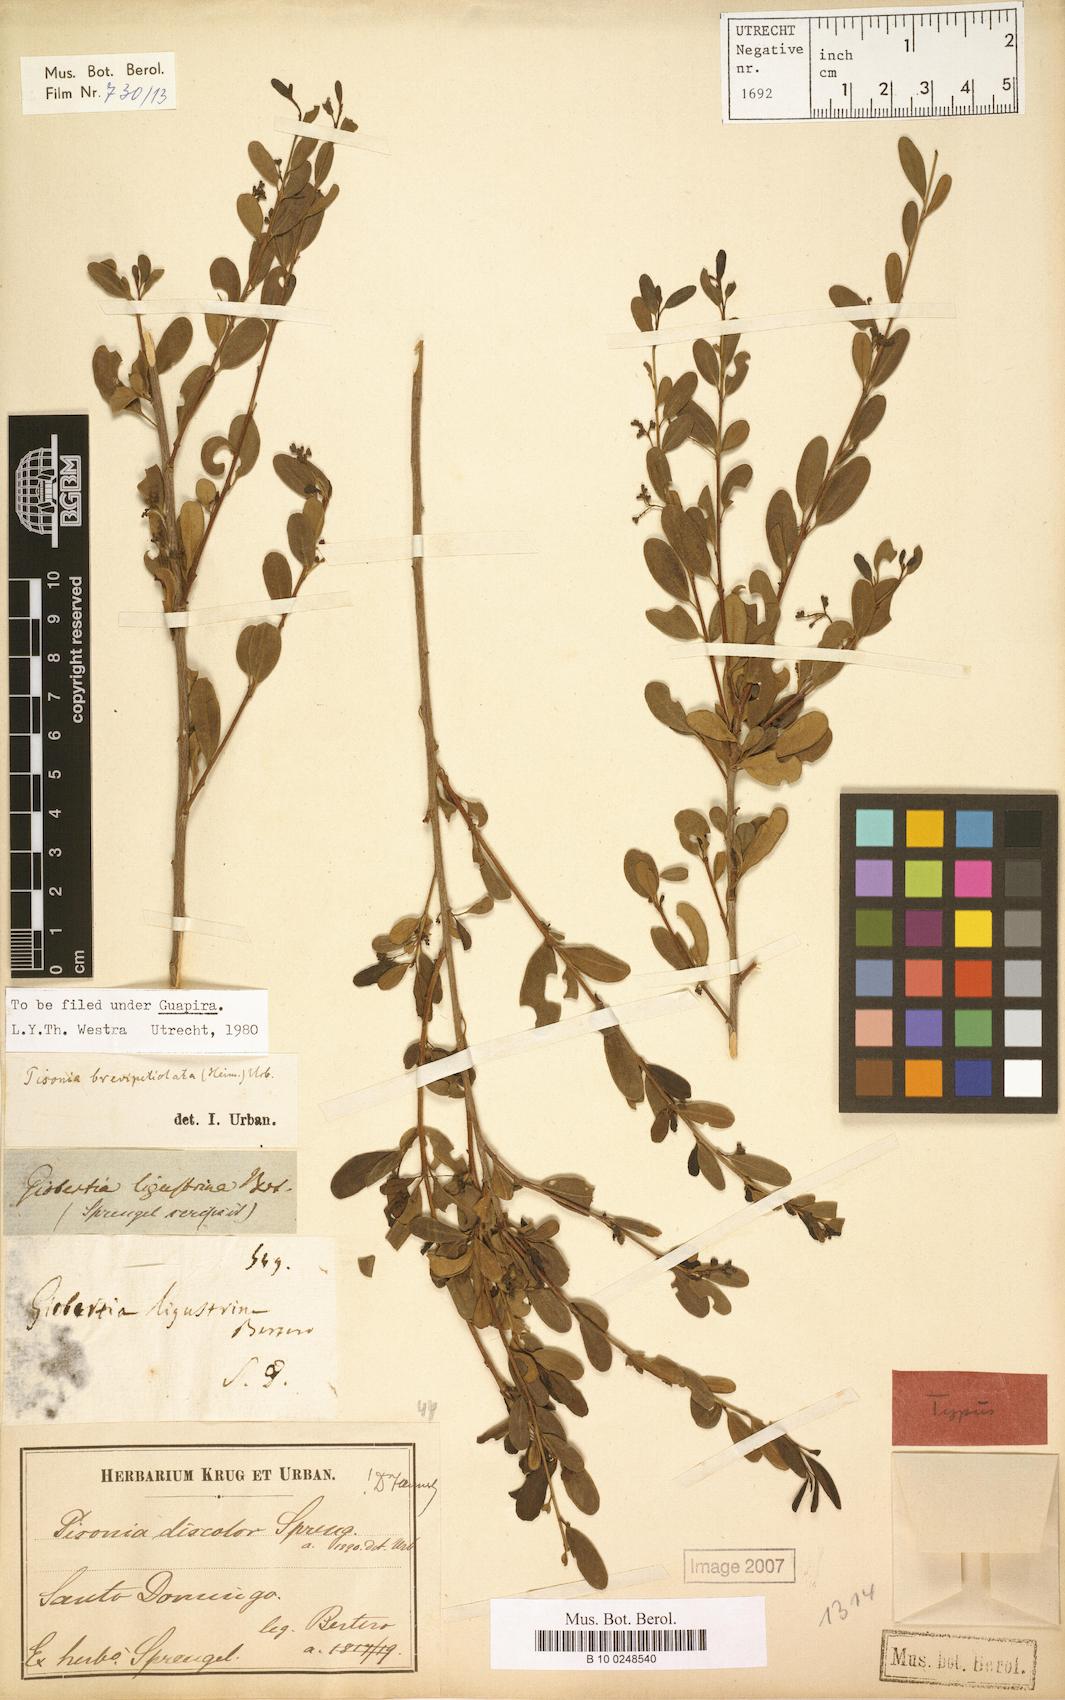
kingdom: Plantae
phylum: Tracheophyta
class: Magnoliopsida
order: Caryophyllales
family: Nyctaginaceae
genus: Guapira
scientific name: Guapira brevipetiolata
